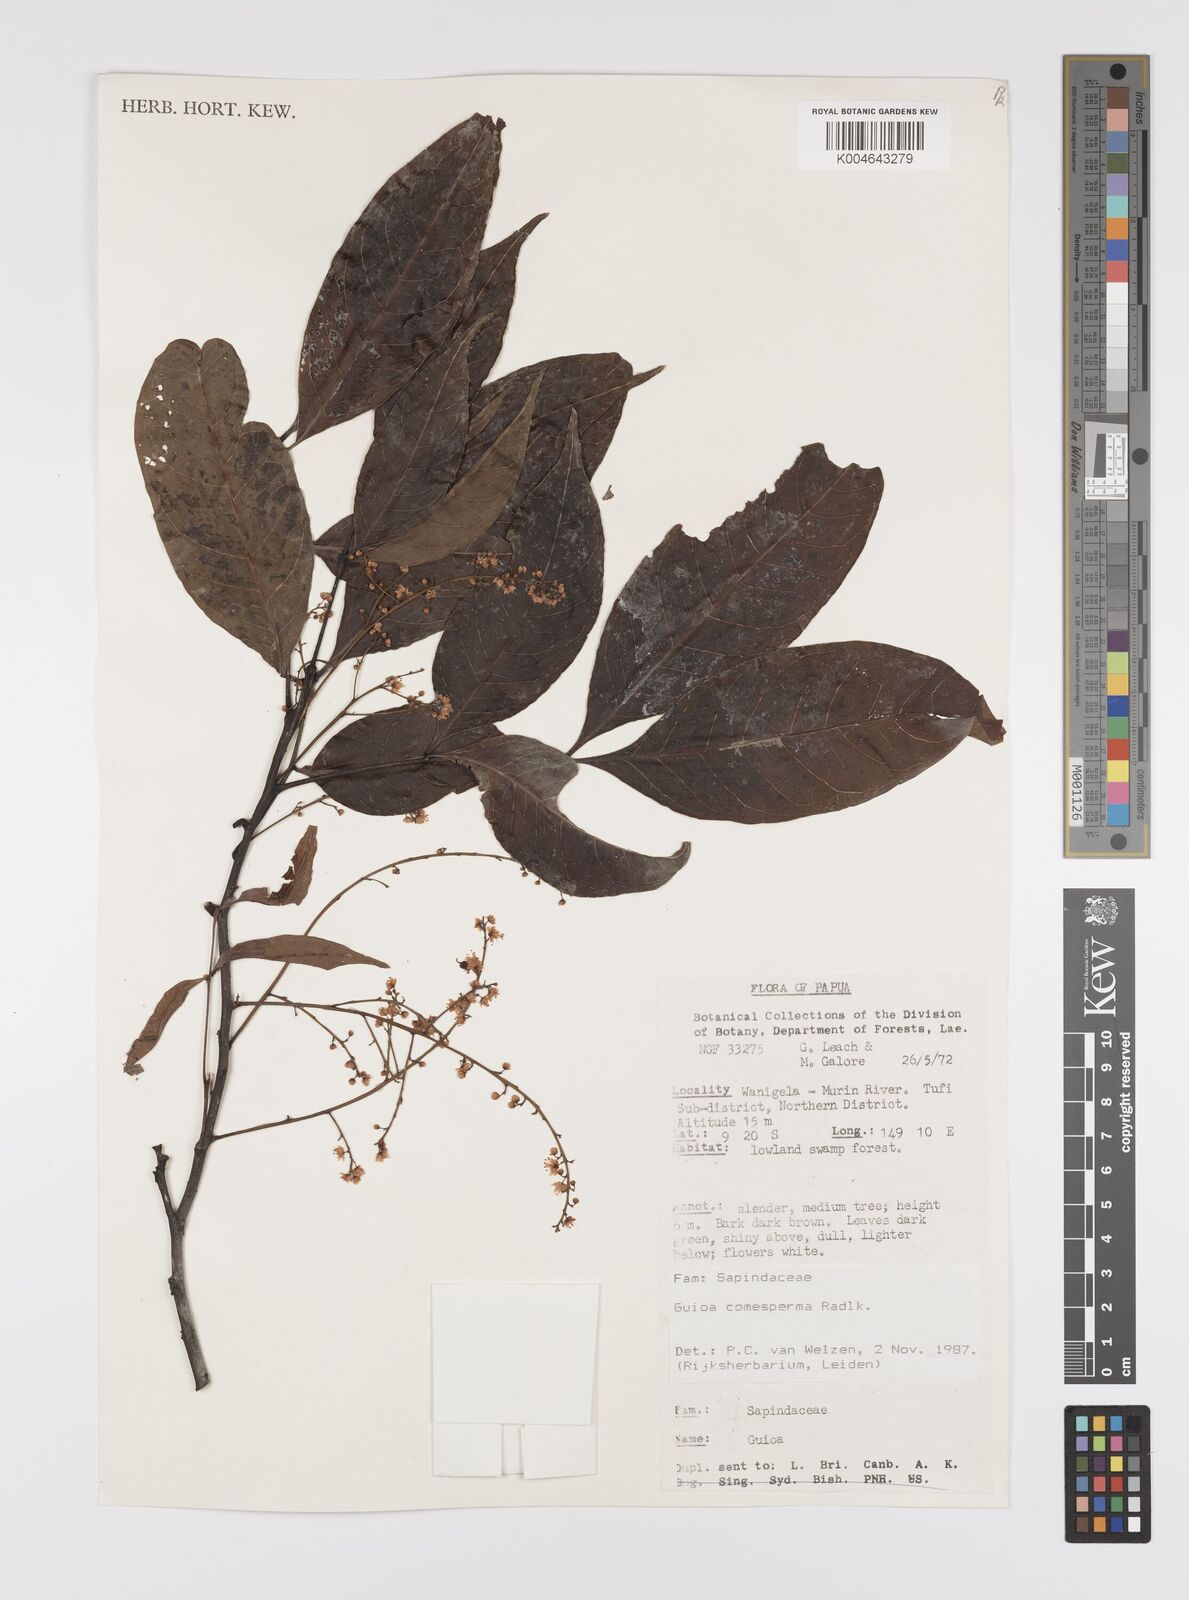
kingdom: Plantae
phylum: Tracheophyta
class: Magnoliopsida
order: Sapindales
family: Sapindaceae
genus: Guioa
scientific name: Guioa comesperma
